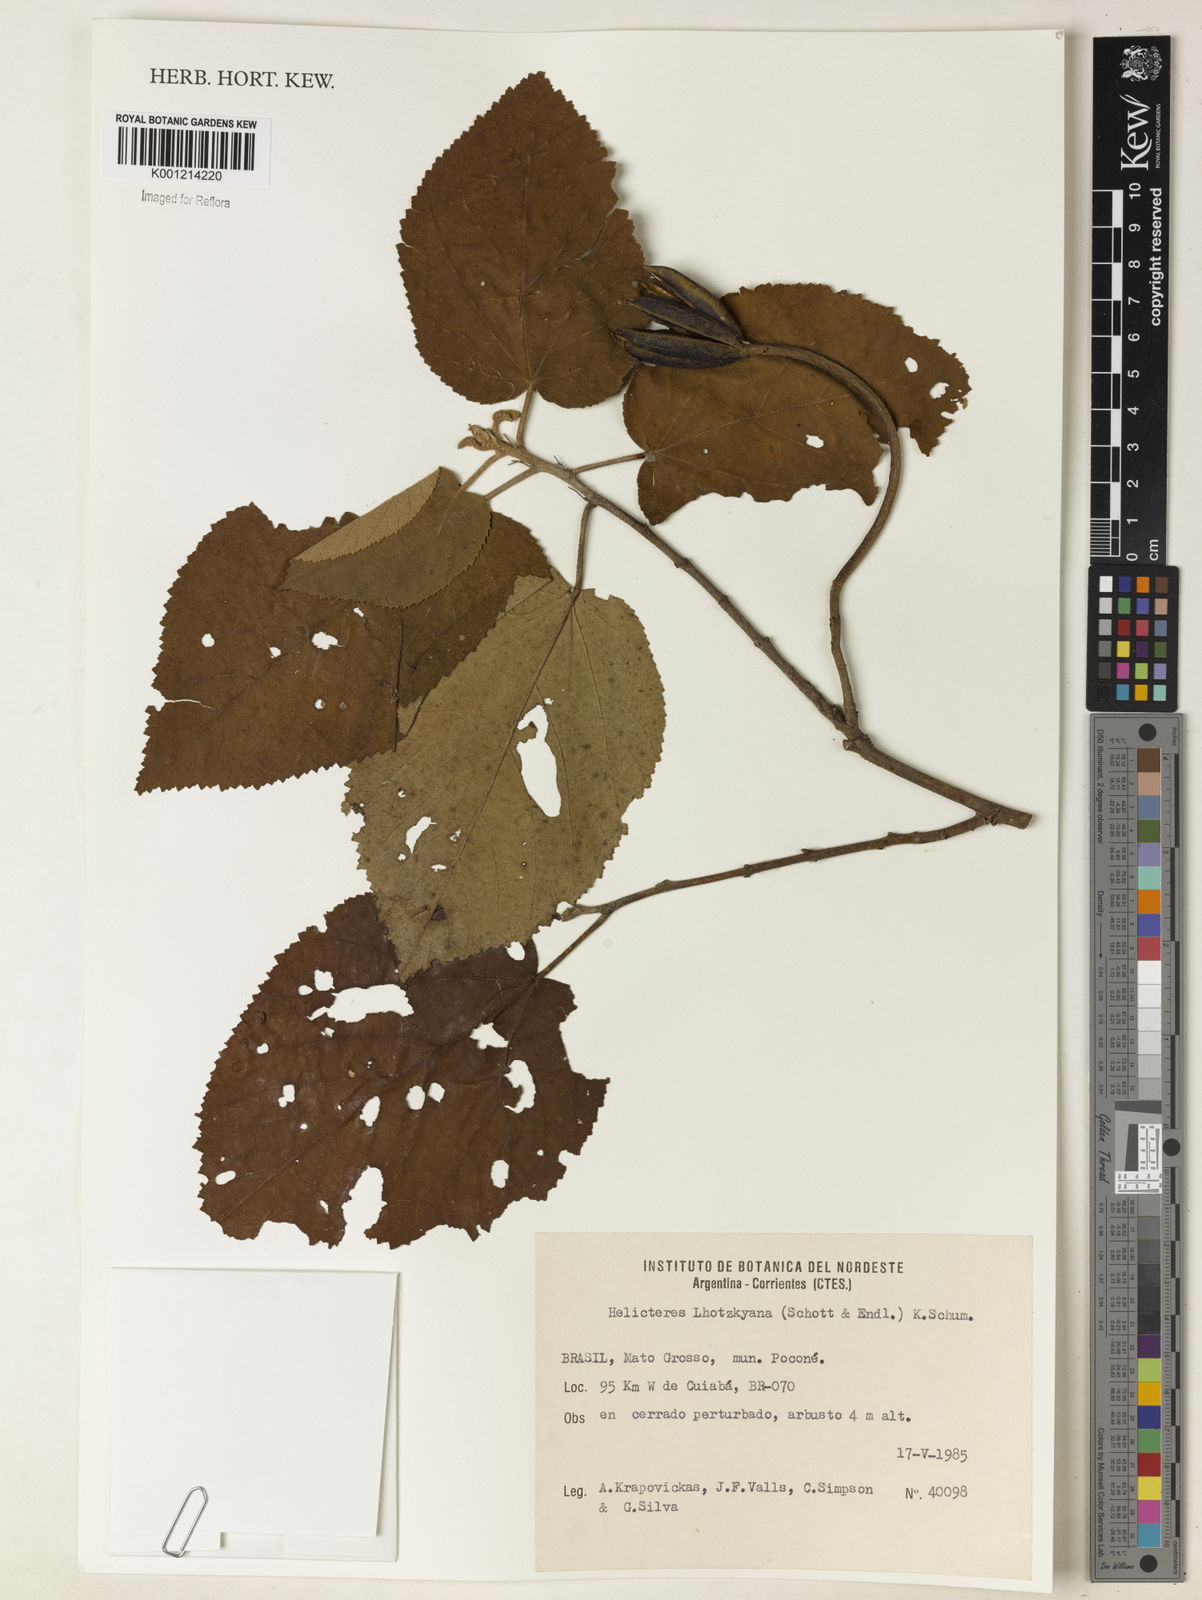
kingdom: Plantae
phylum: Tracheophyta
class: Magnoliopsida
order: Malvales
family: Malvaceae
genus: Helicteres
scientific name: Helicteres lhotzkyana
